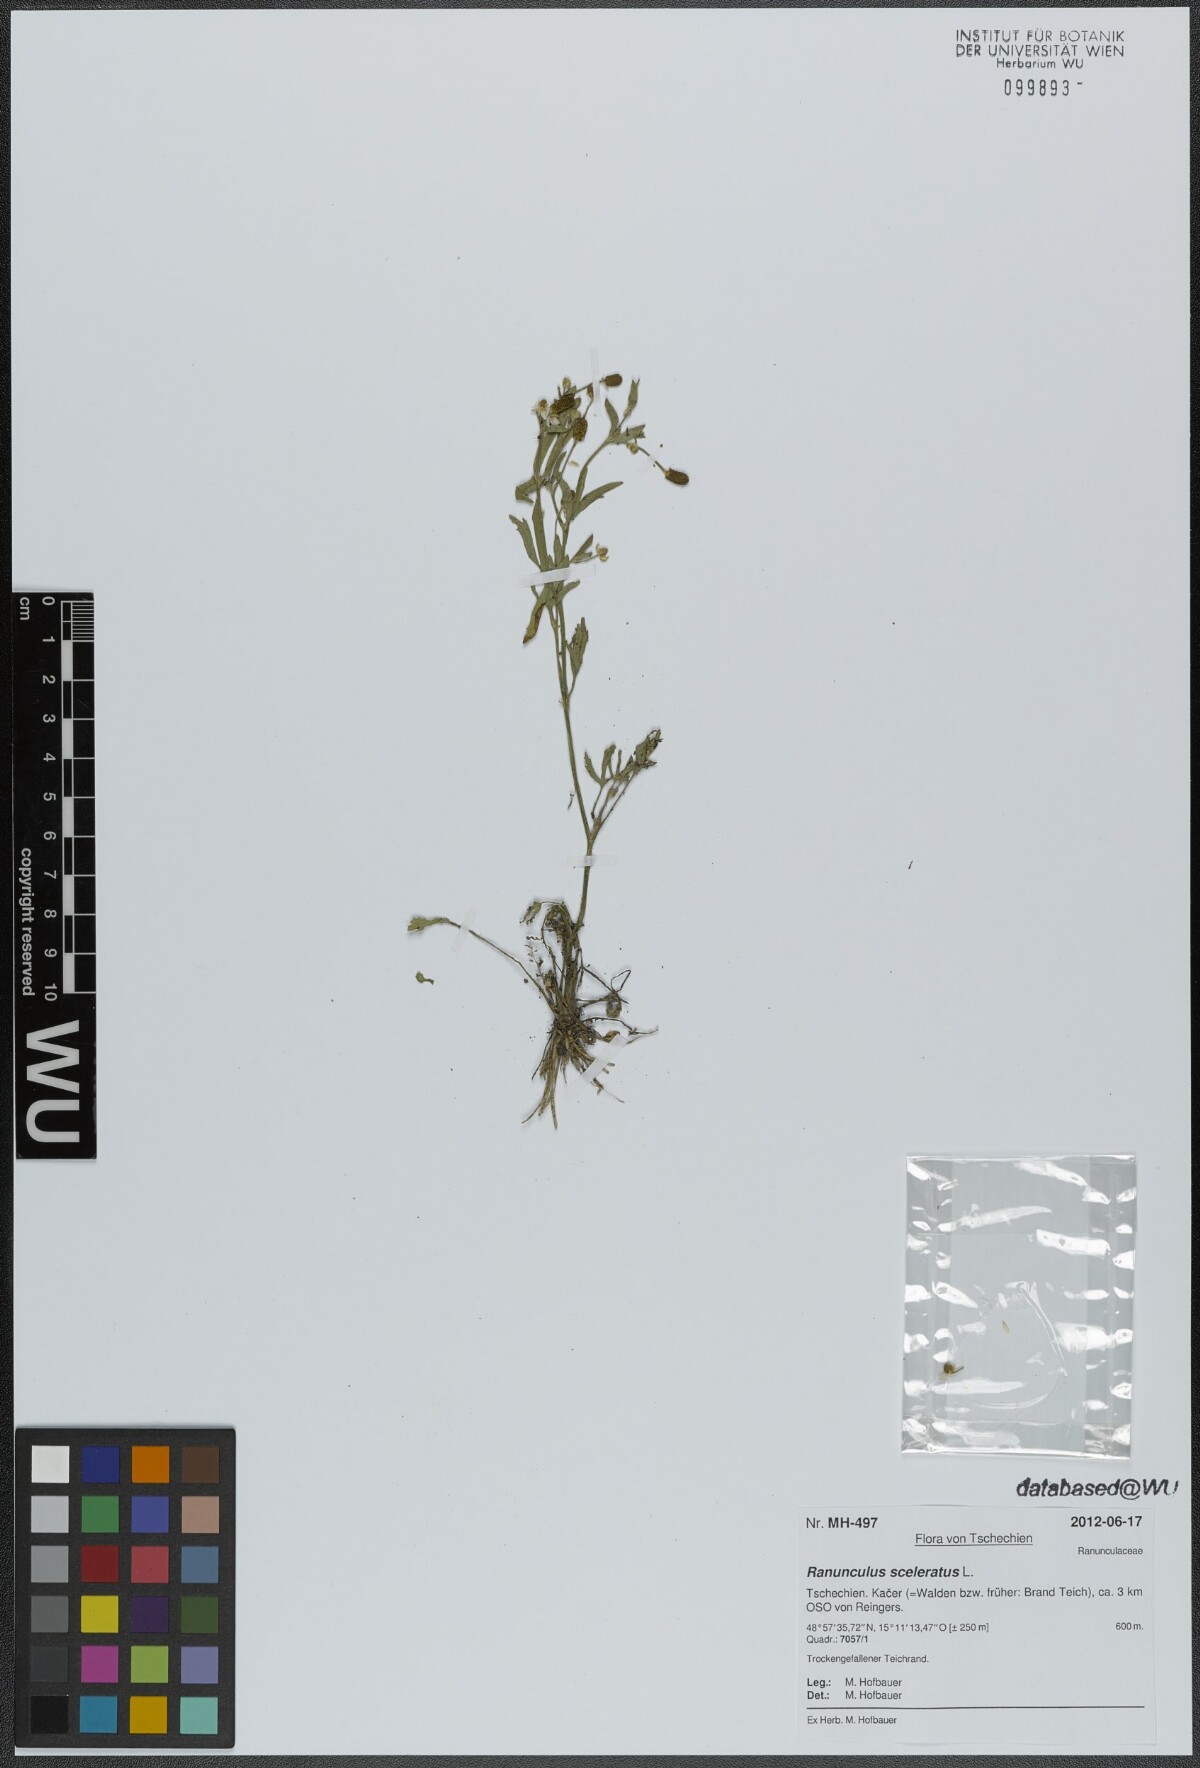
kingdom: Plantae
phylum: Tracheophyta
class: Magnoliopsida
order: Ranunculales
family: Ranunculaceae
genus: Ranunculus
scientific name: Ranunculus sceleratus
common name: Celery-leaved buttercup
